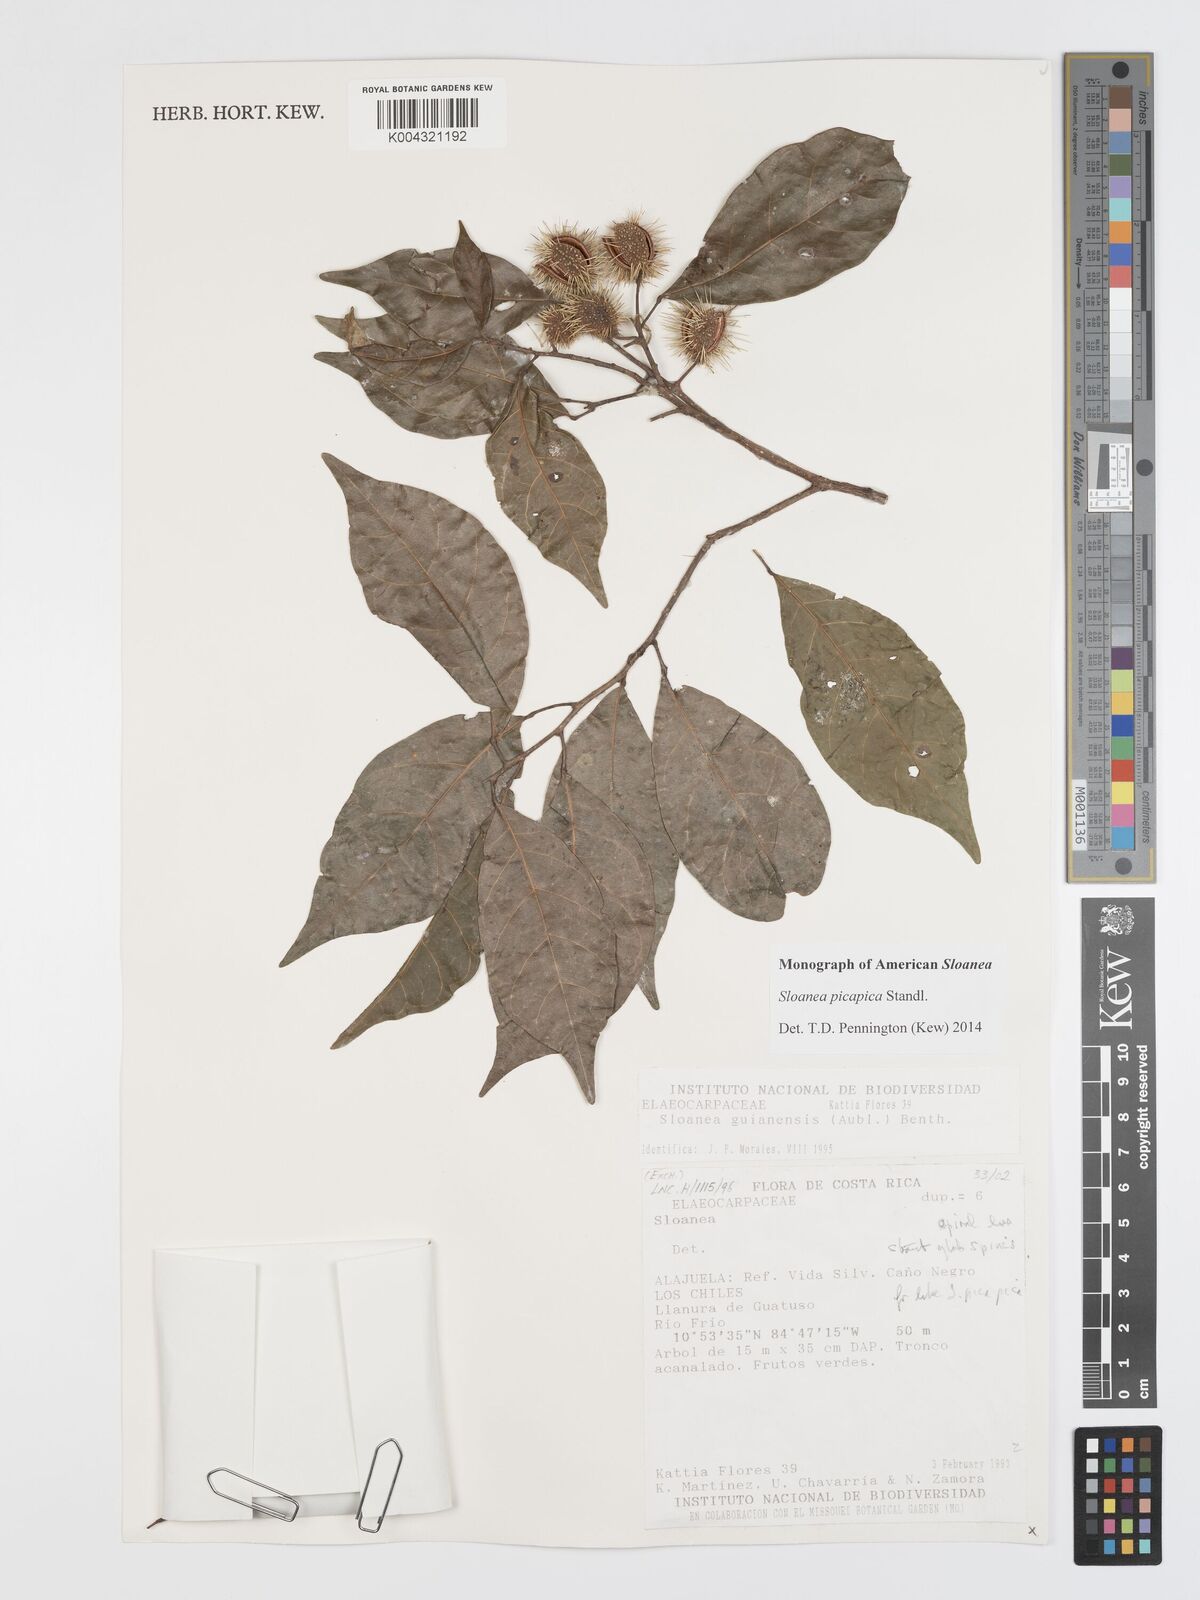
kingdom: Plantae
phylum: Tracheophyta
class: Magnoliopsida
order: Oxalidales
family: Elaeocarpaceae
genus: Sloanea
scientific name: Sloanea picapica
